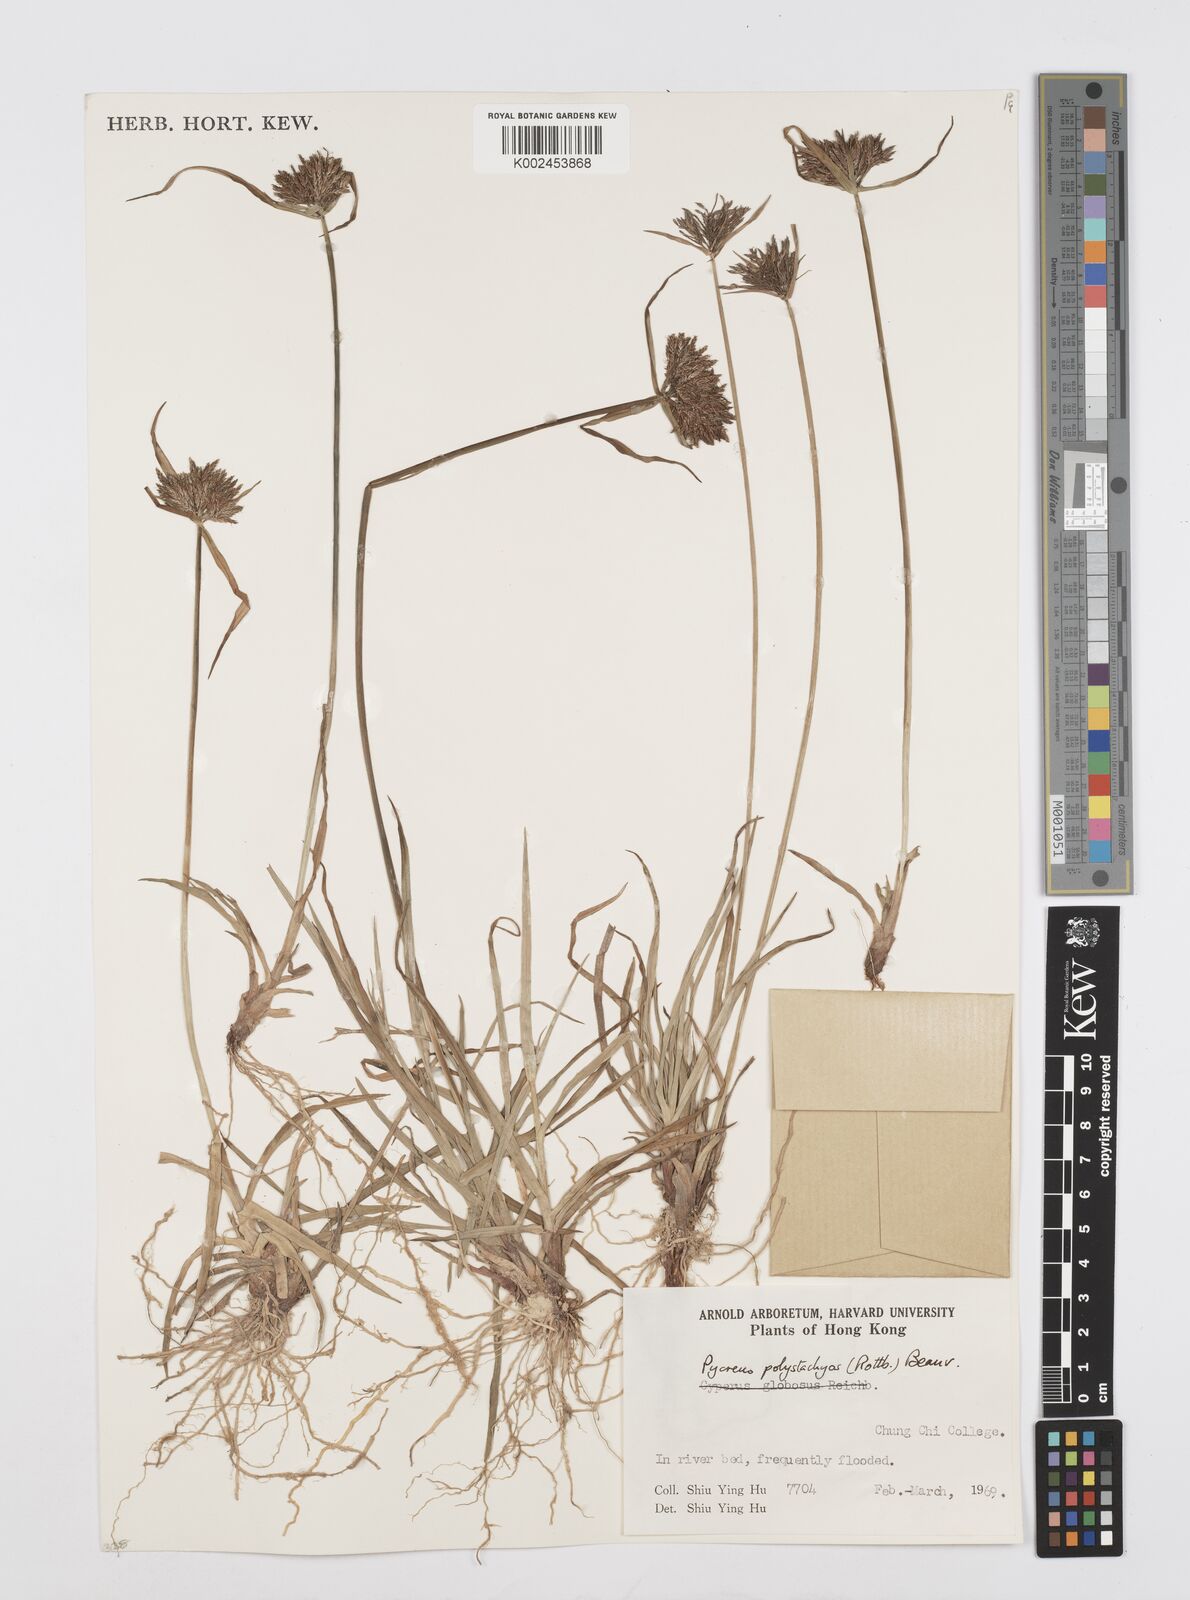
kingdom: Plantae
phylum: Tracheophyta
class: Liliopsida
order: Poales
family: Cyperaceae
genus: Cyperus
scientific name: Cyperus polystachyos
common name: Bunchy flat sedge
